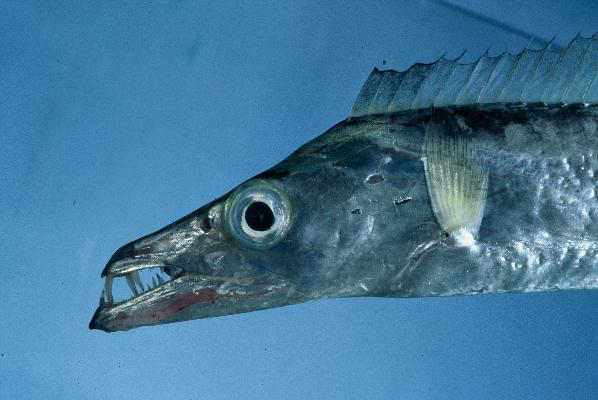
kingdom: Animalia
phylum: Chordata
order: Perciformes
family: Trichiuridae
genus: Trichiurus
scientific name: Trichiurus lepturus
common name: Largehead hairtail
